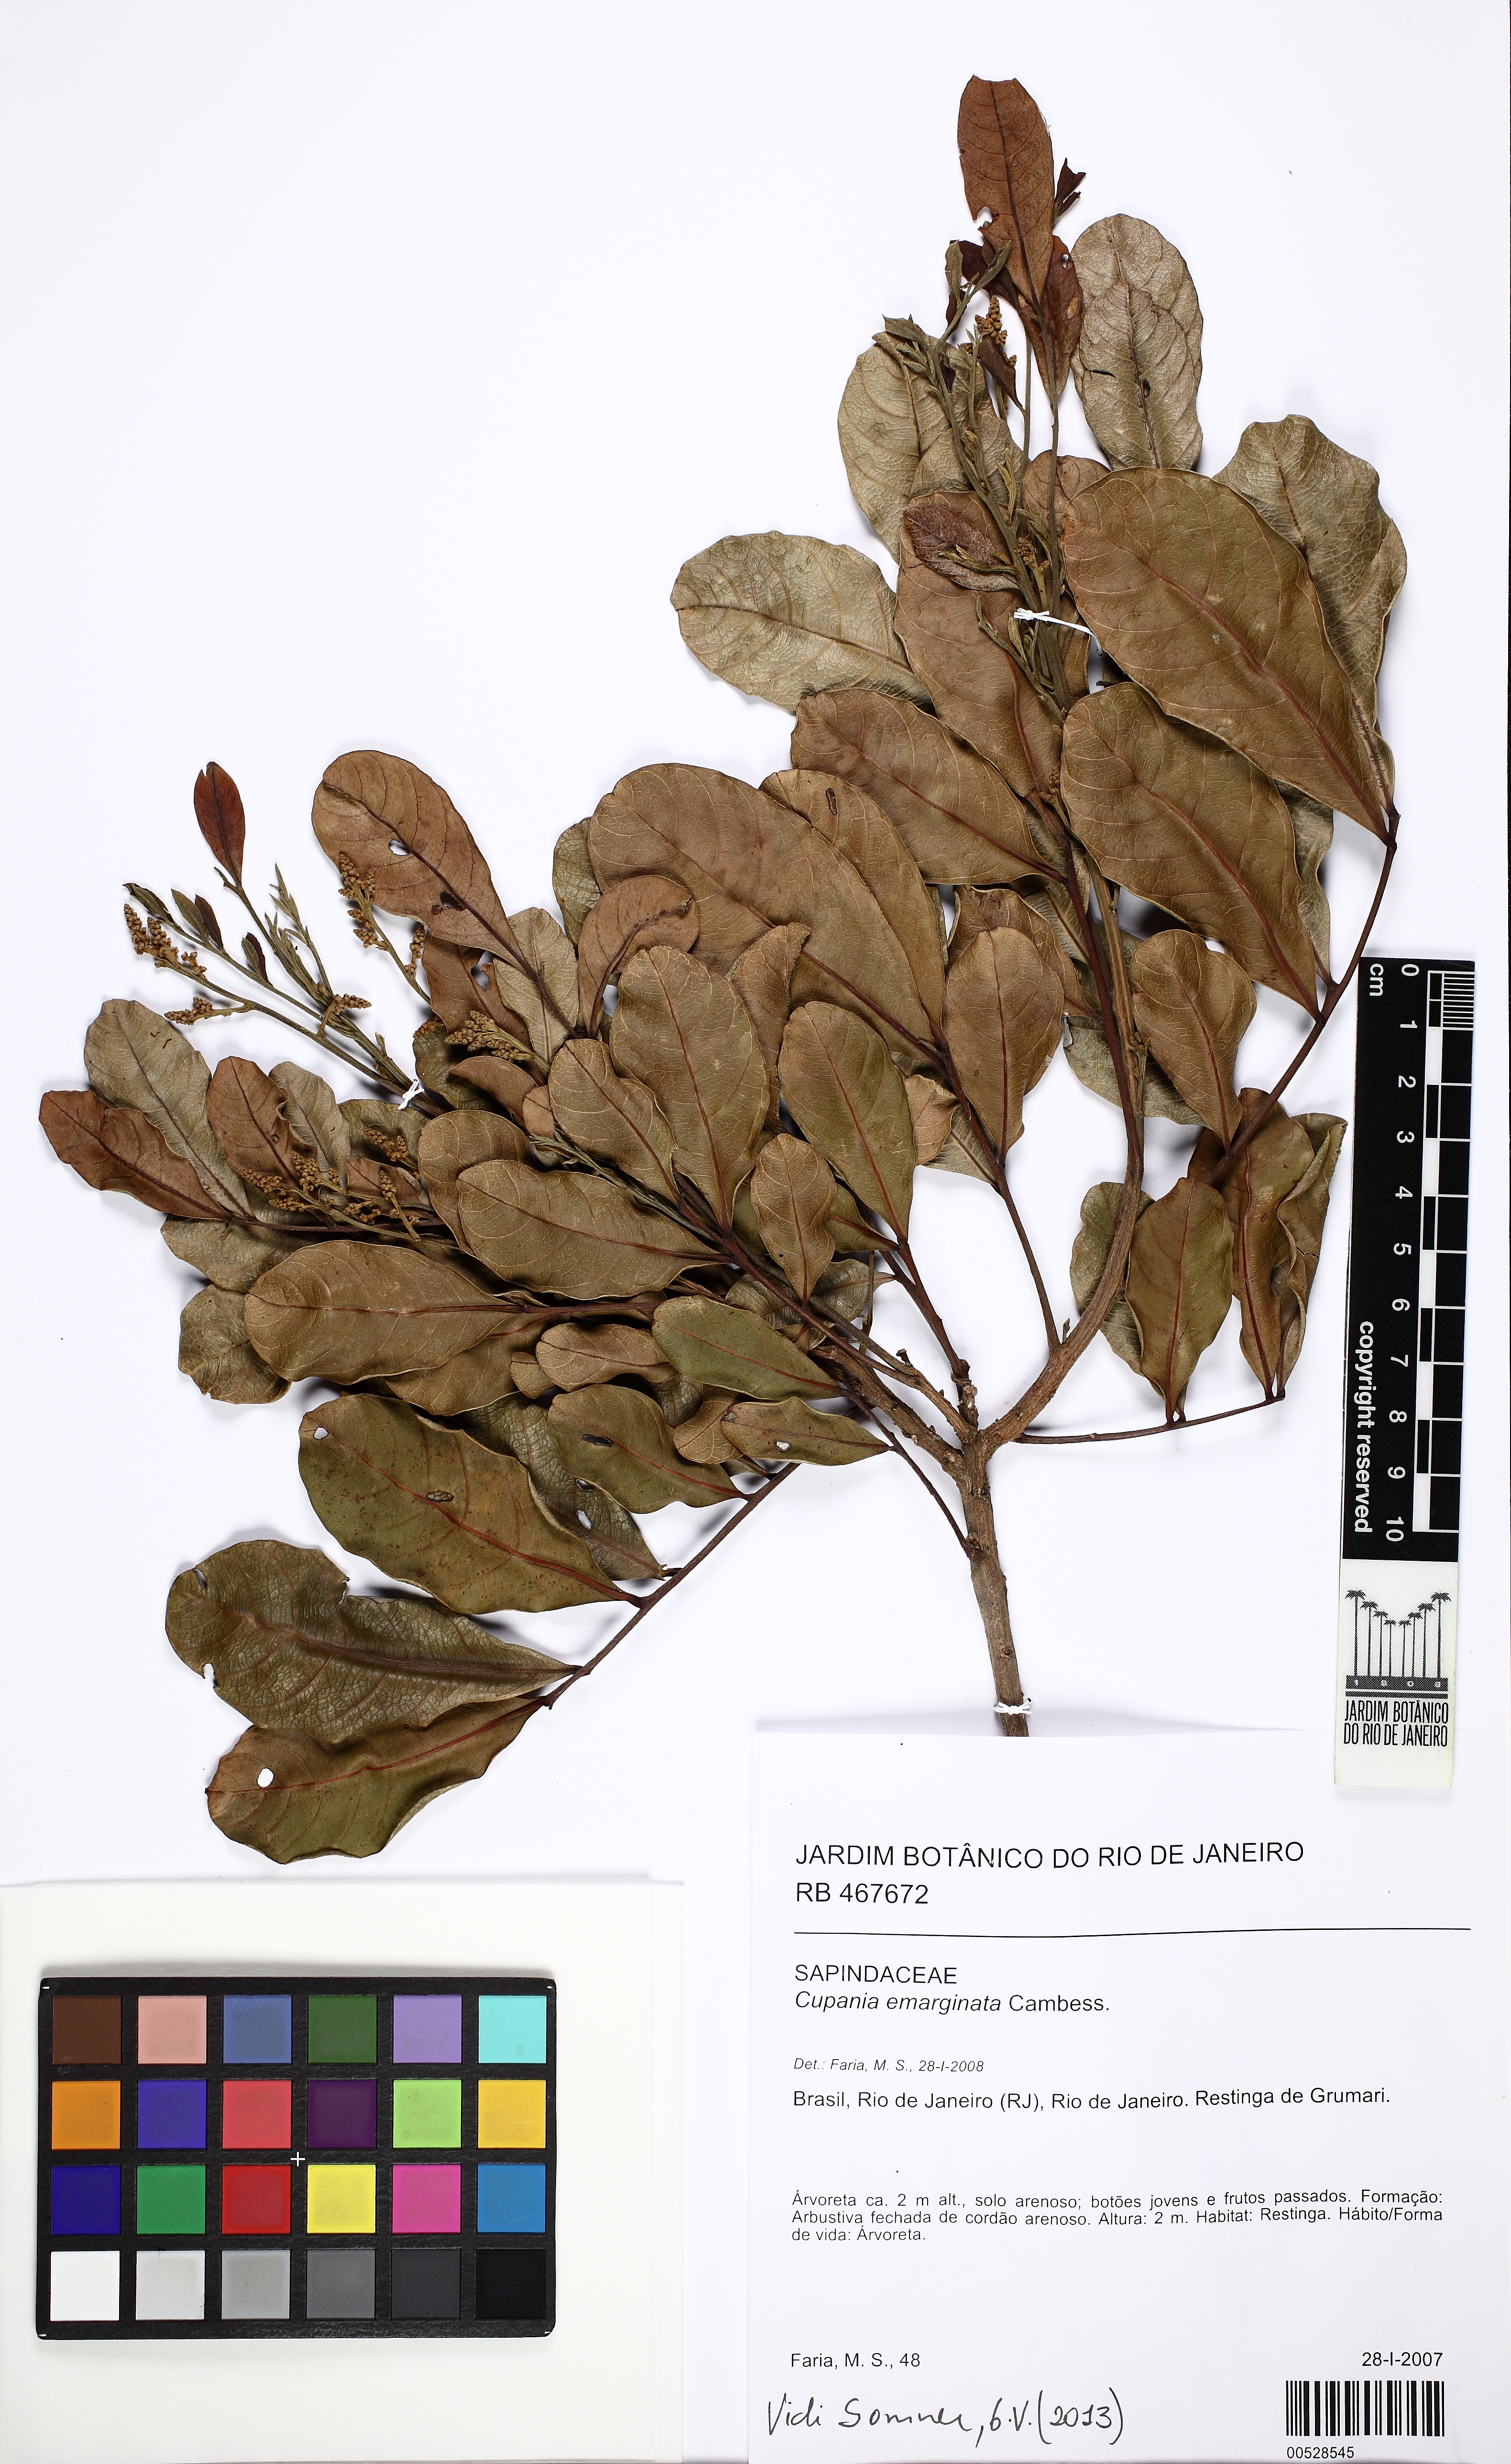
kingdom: Plantae
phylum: Tracheophyta
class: Magnoliopsida
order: Sapindales
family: Sapindaceae
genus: Cupania
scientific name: Cupania emarginata
